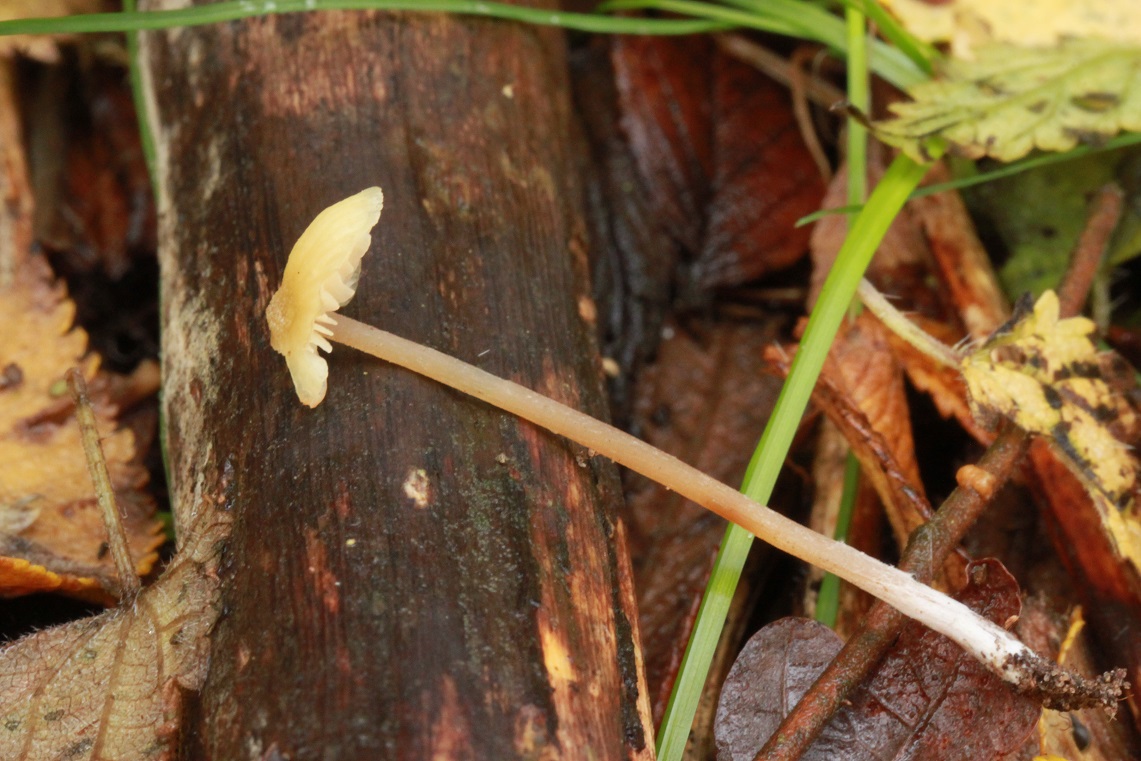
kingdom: Fungi
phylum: Basidiomycota
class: Agaricomycetes
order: Agaricales
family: Entolomataceae
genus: Entoloma
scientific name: Entoloma pleopodium
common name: duftende rødblad
